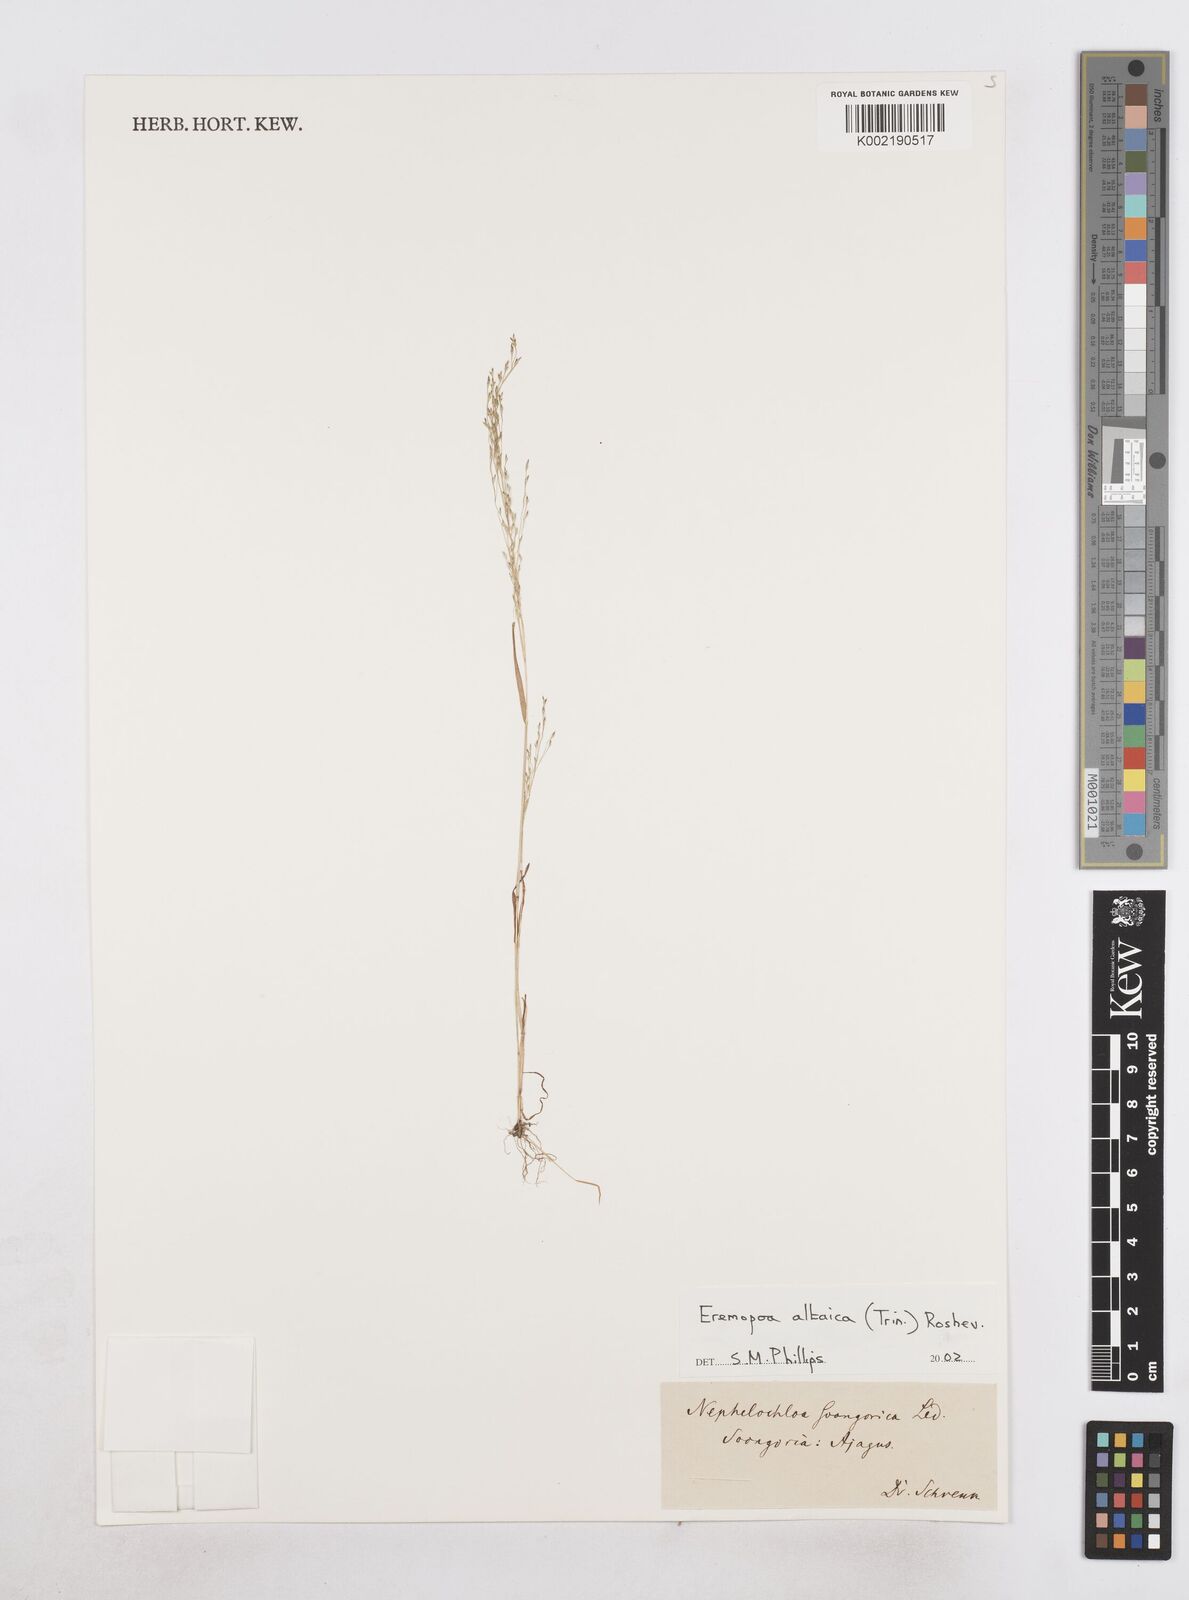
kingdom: Plantae
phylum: Tracheophyta
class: Liliopsida
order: Poales
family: Poaceae
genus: Poa
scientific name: Poa diaphora
